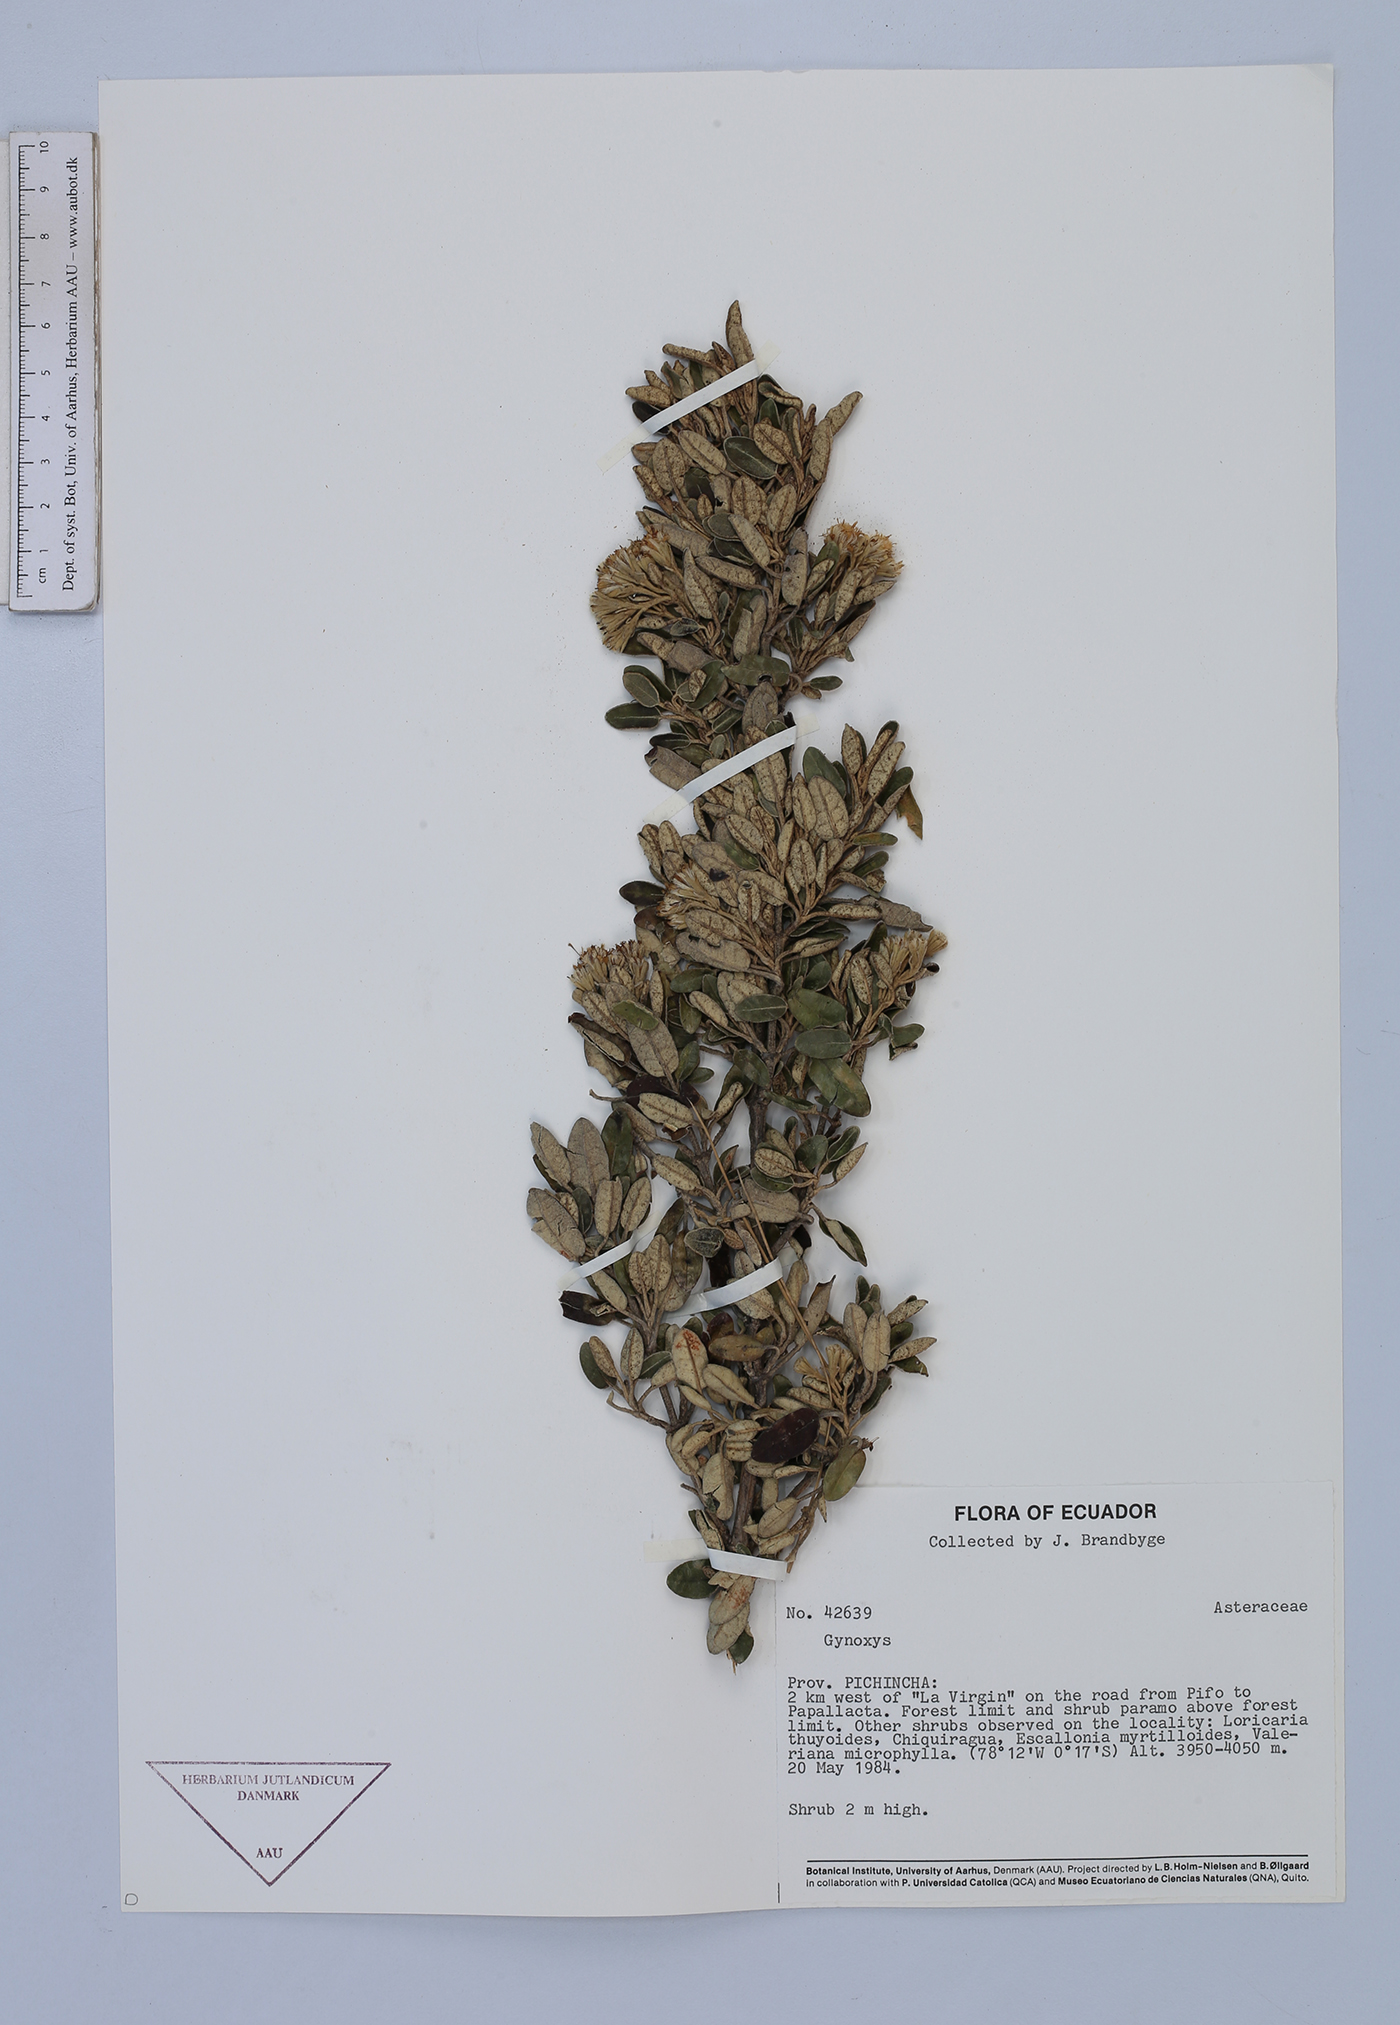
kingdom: Plantae
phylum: Tracheophyta
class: Magnoliopsida
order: Asterales
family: Asteraceae
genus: Gynoxys
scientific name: Gynoxys buxifolia
